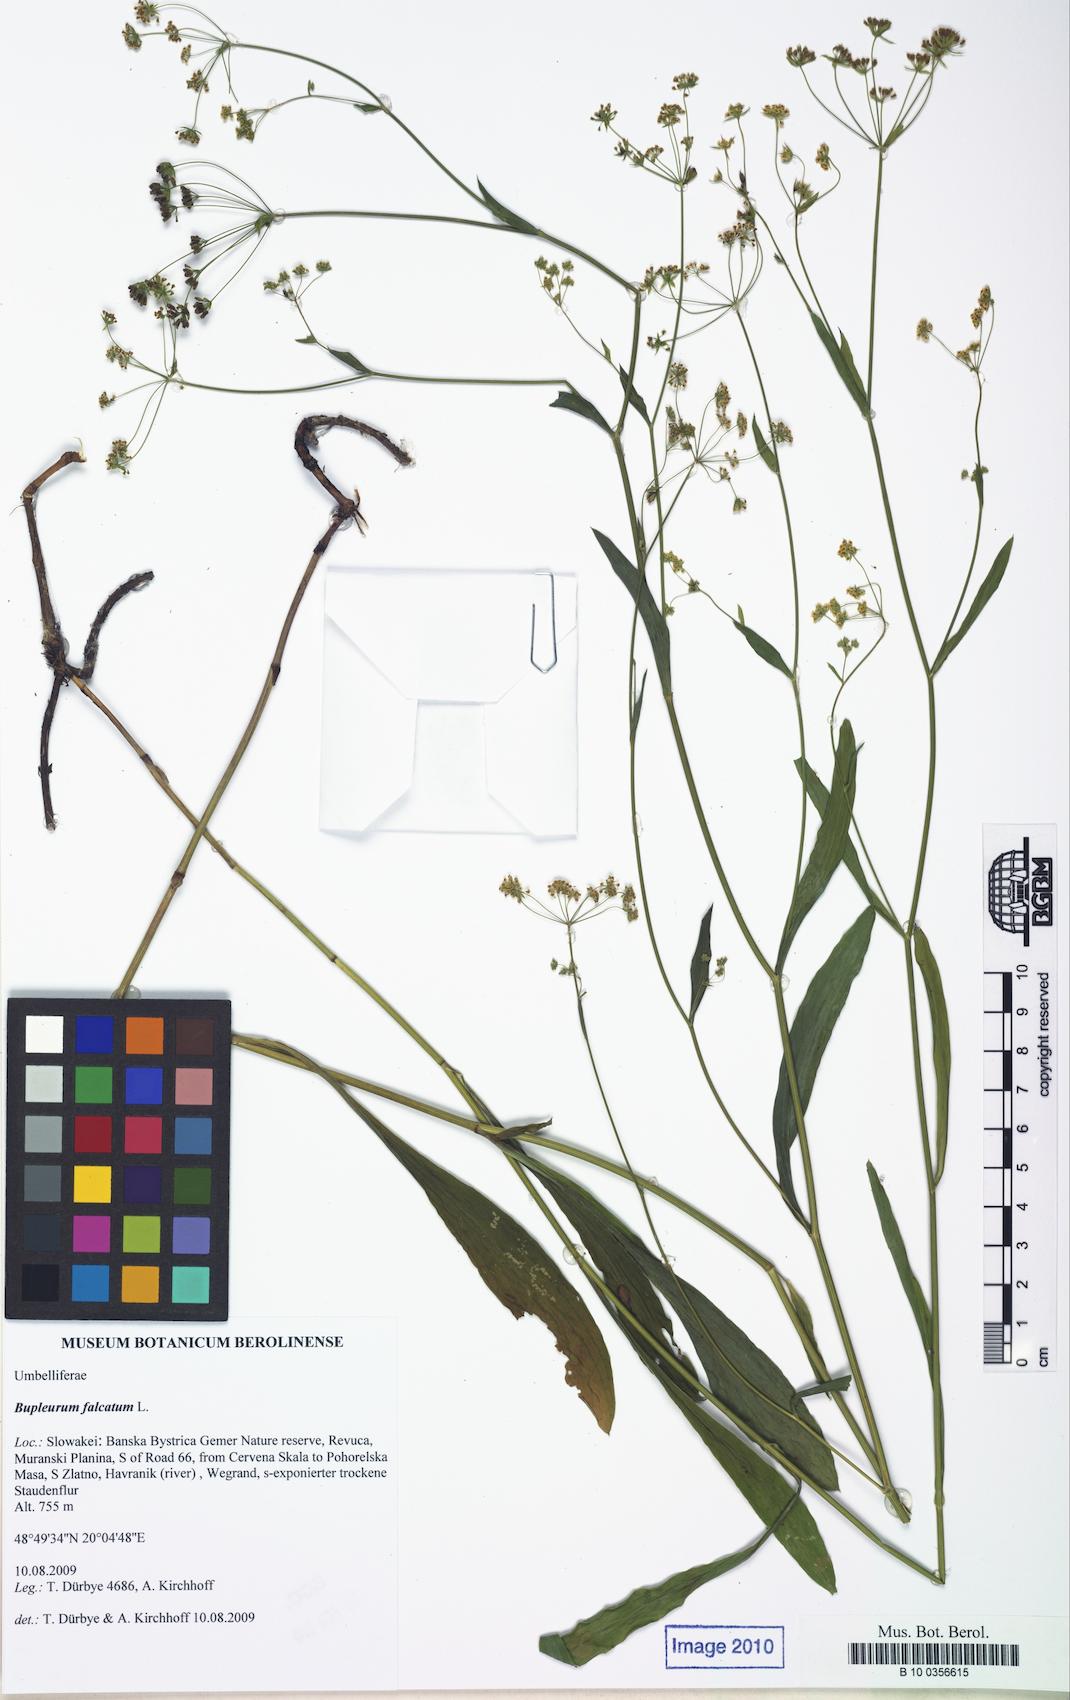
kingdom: Plantae
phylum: Tracheophyta
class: Magnoliopsida
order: Apiales
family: Apiaceae
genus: Bupleurum
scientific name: Bupleurum falcatum
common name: Sickle-leaved hare's-ear
